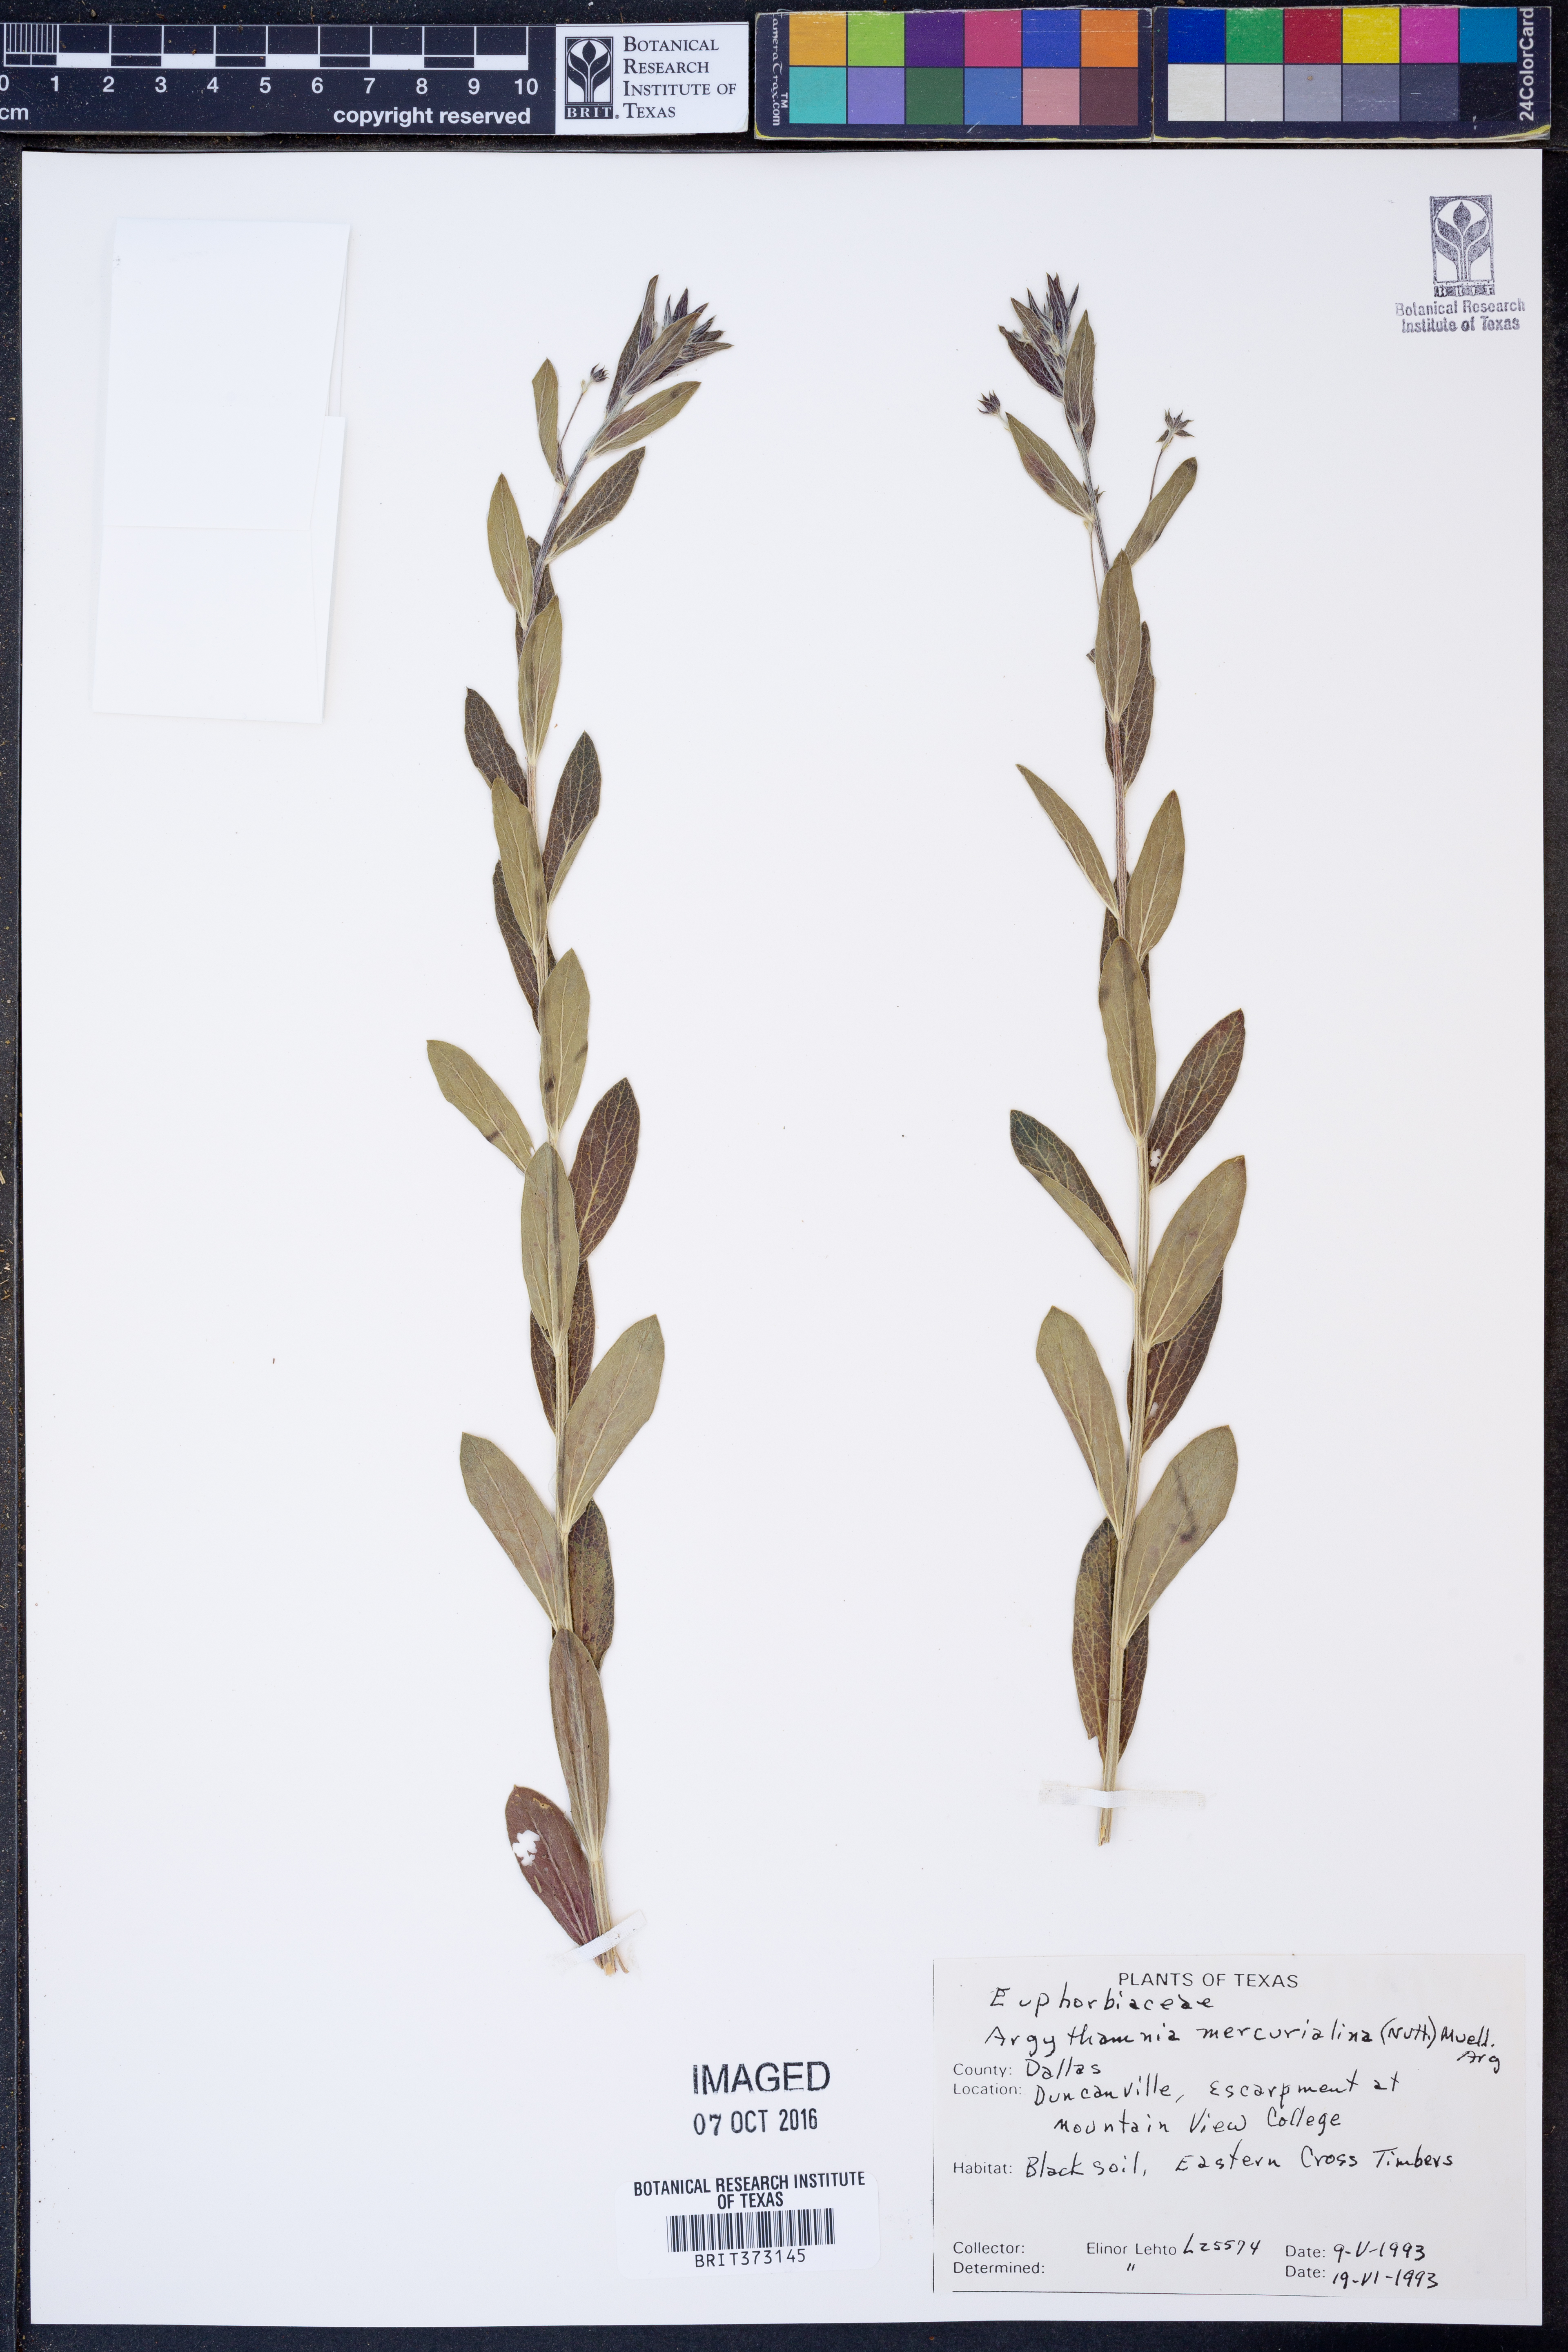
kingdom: Plantae
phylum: Tracheophyta
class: Magnoliopsida
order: Malpighiales
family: Euphorbiaceae
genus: Ditaxis
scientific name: Ditaxis mercurialina
